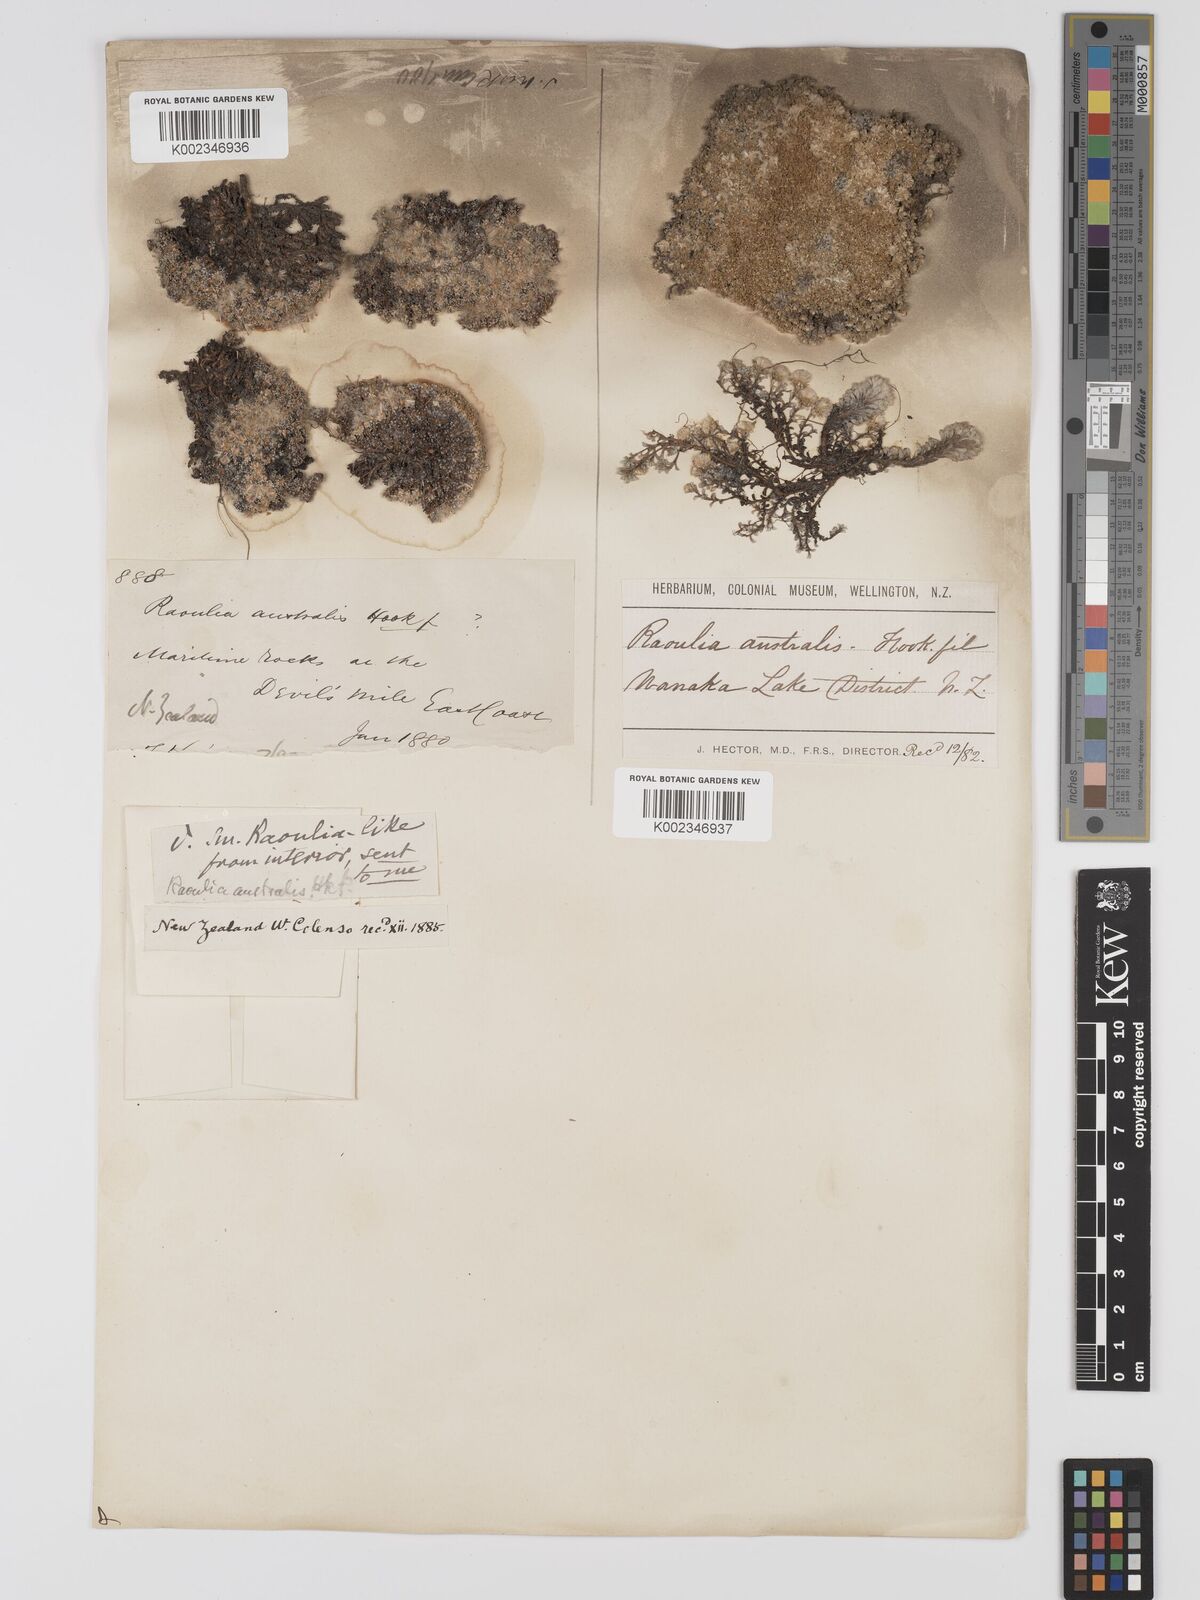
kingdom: Plantae
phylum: Tracheophyta
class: Magnoliopsida
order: Asterales
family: Asteraceae
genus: Raoulia
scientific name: Raoulia
